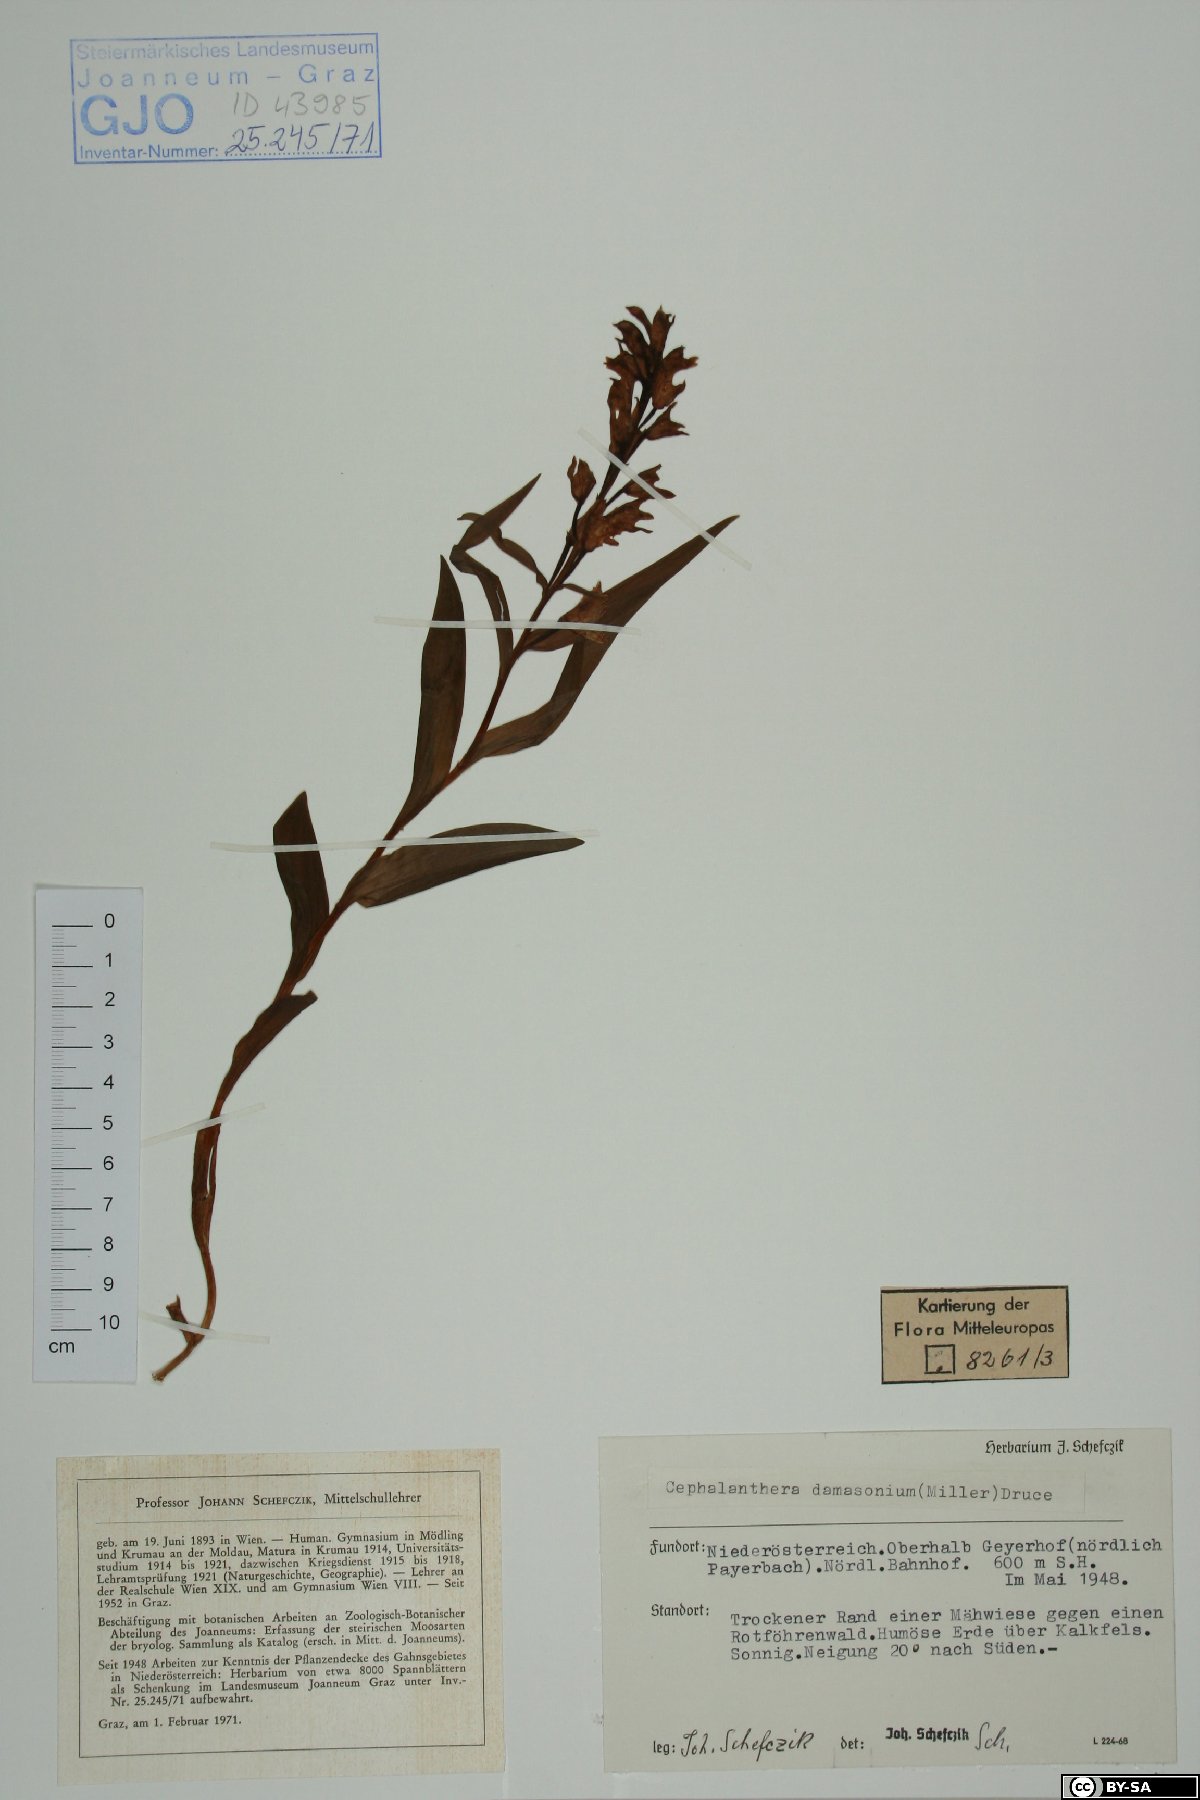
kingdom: Plantae
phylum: Tracheophyta
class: Liliopsida
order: Asparagales
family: Orchidaceae
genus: Cephalanthera
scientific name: Cephalanthera damasonium
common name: White helleborine
